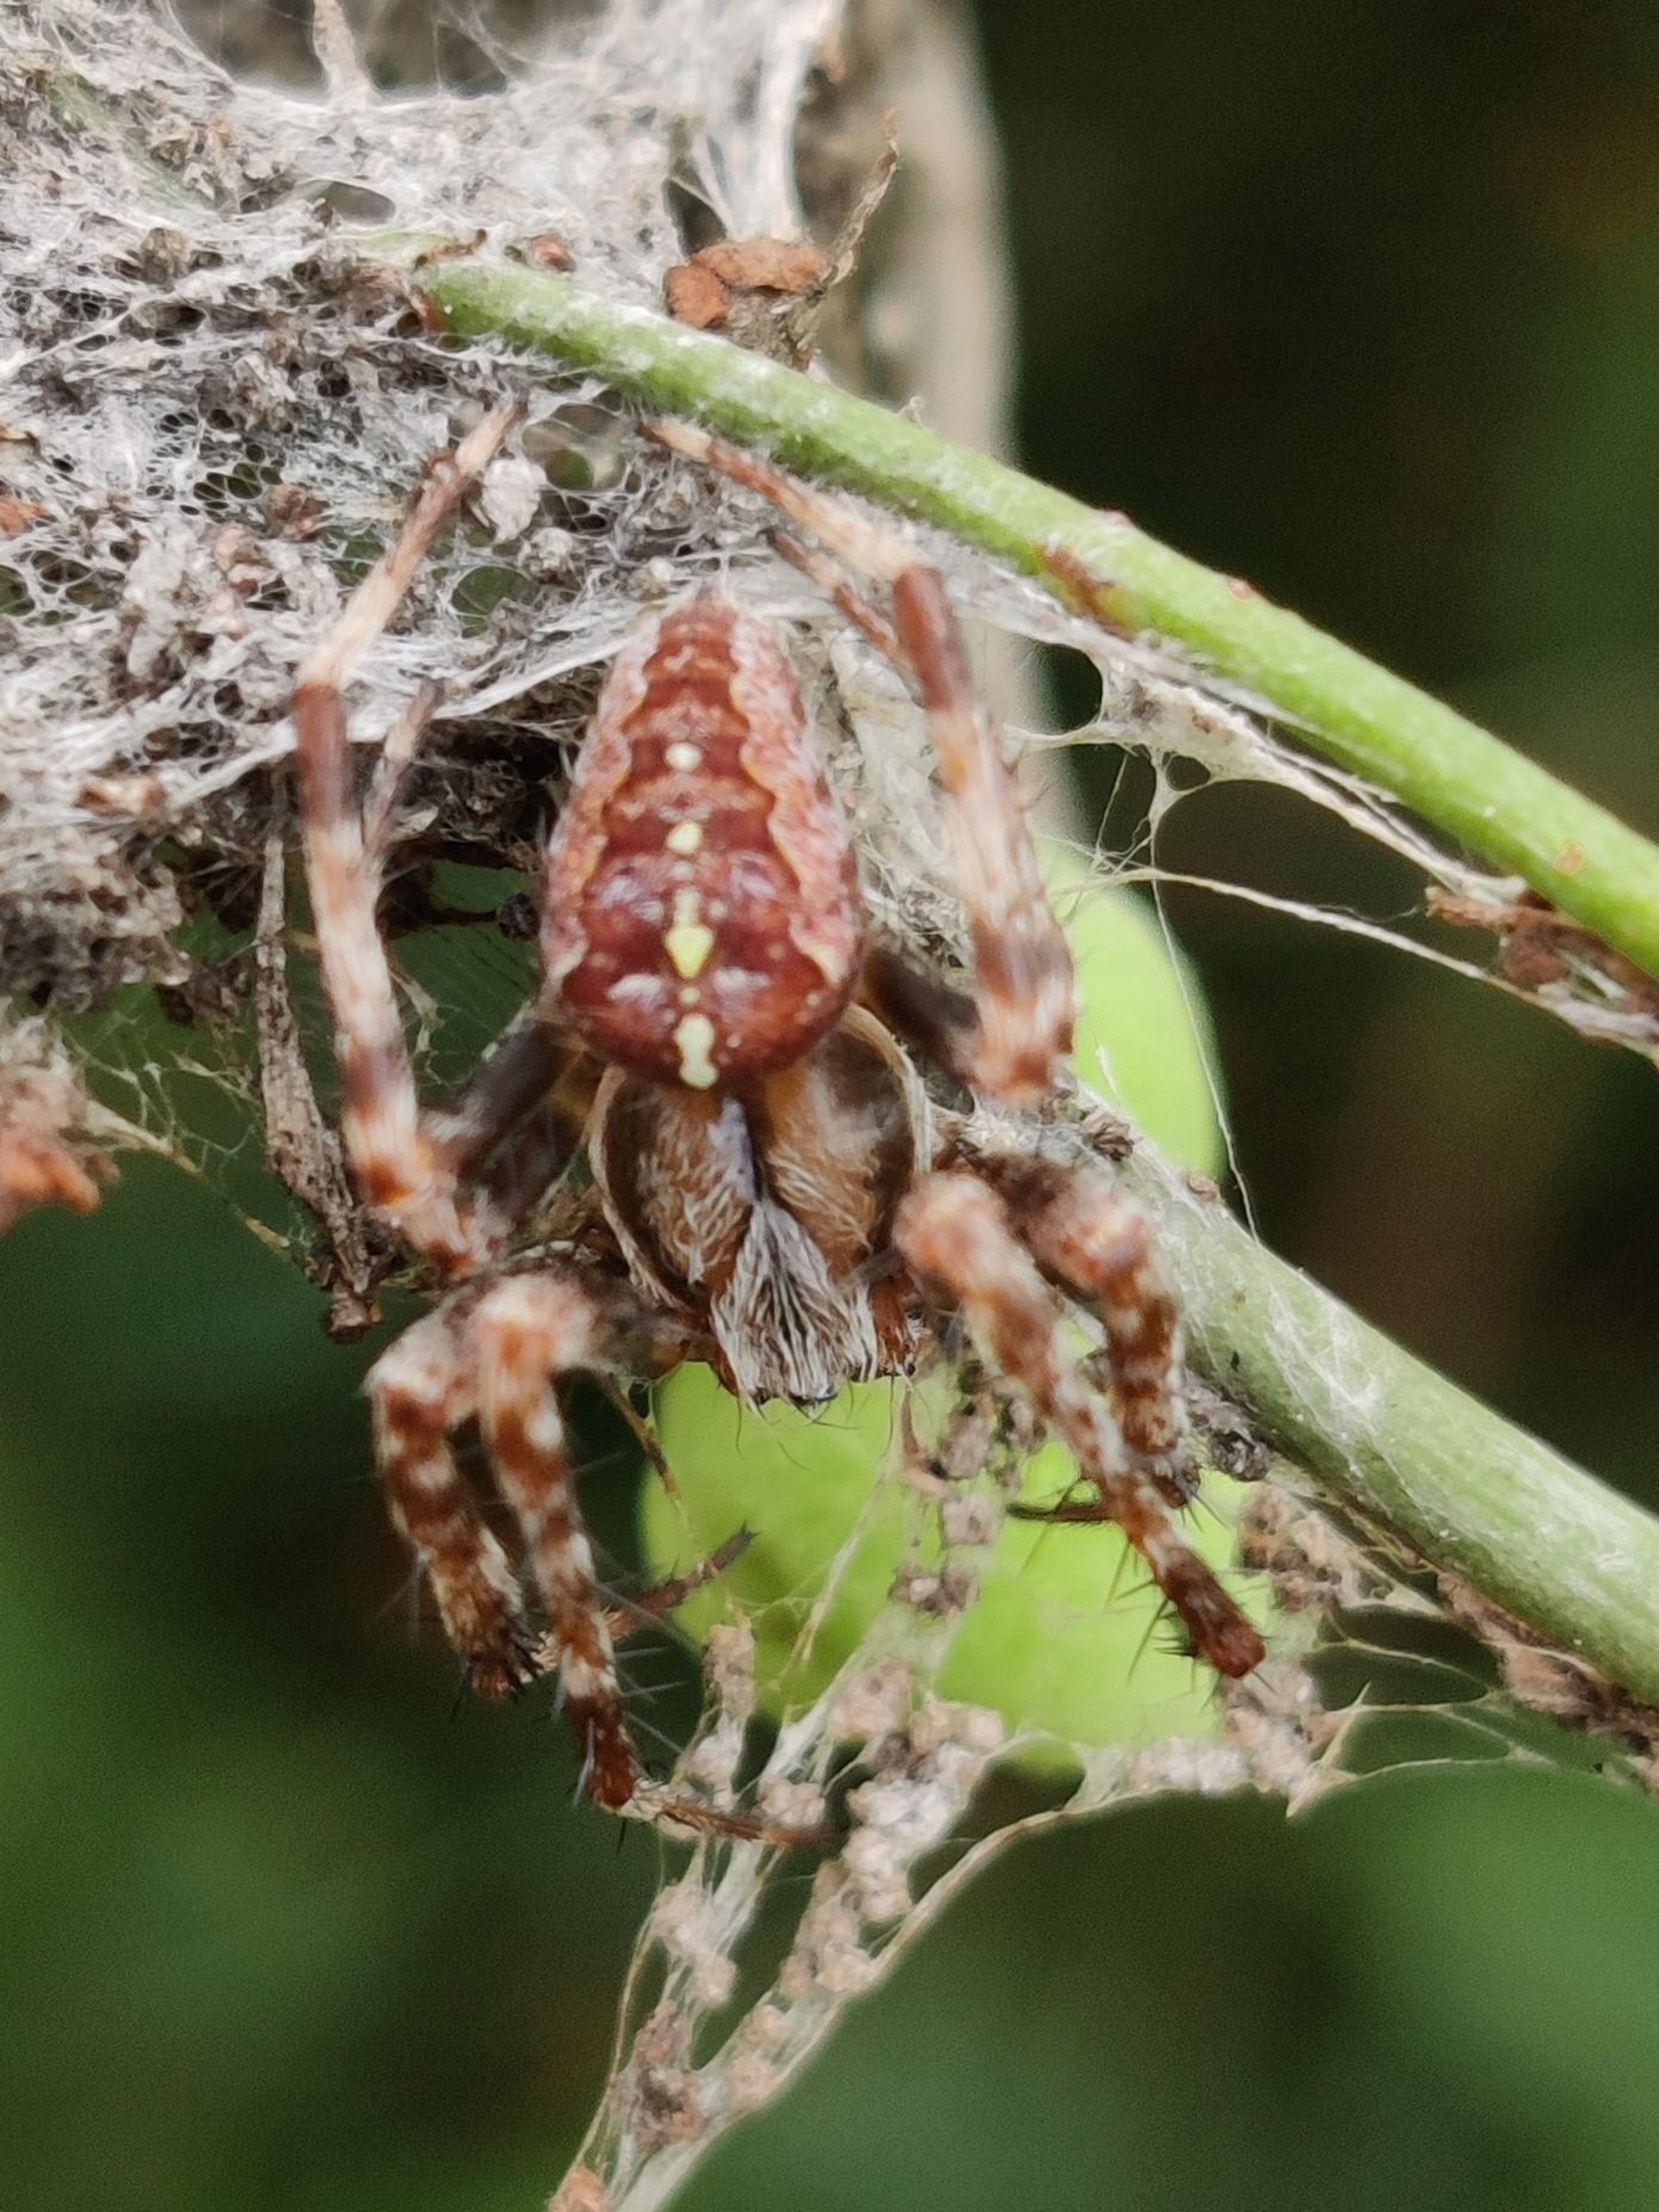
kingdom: Animalia
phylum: Arthropoda
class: Arachnida
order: Araneae
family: Araneidae
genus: Araneus
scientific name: Araneus diadematus
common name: Korsedderkop
